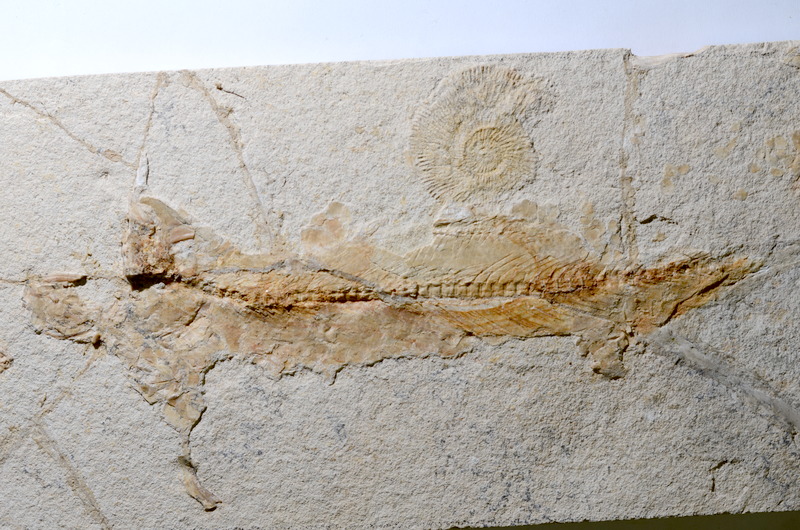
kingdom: Animalia
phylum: Chordata
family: Ascalaboidae
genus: Tharsis
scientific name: Tharsis
